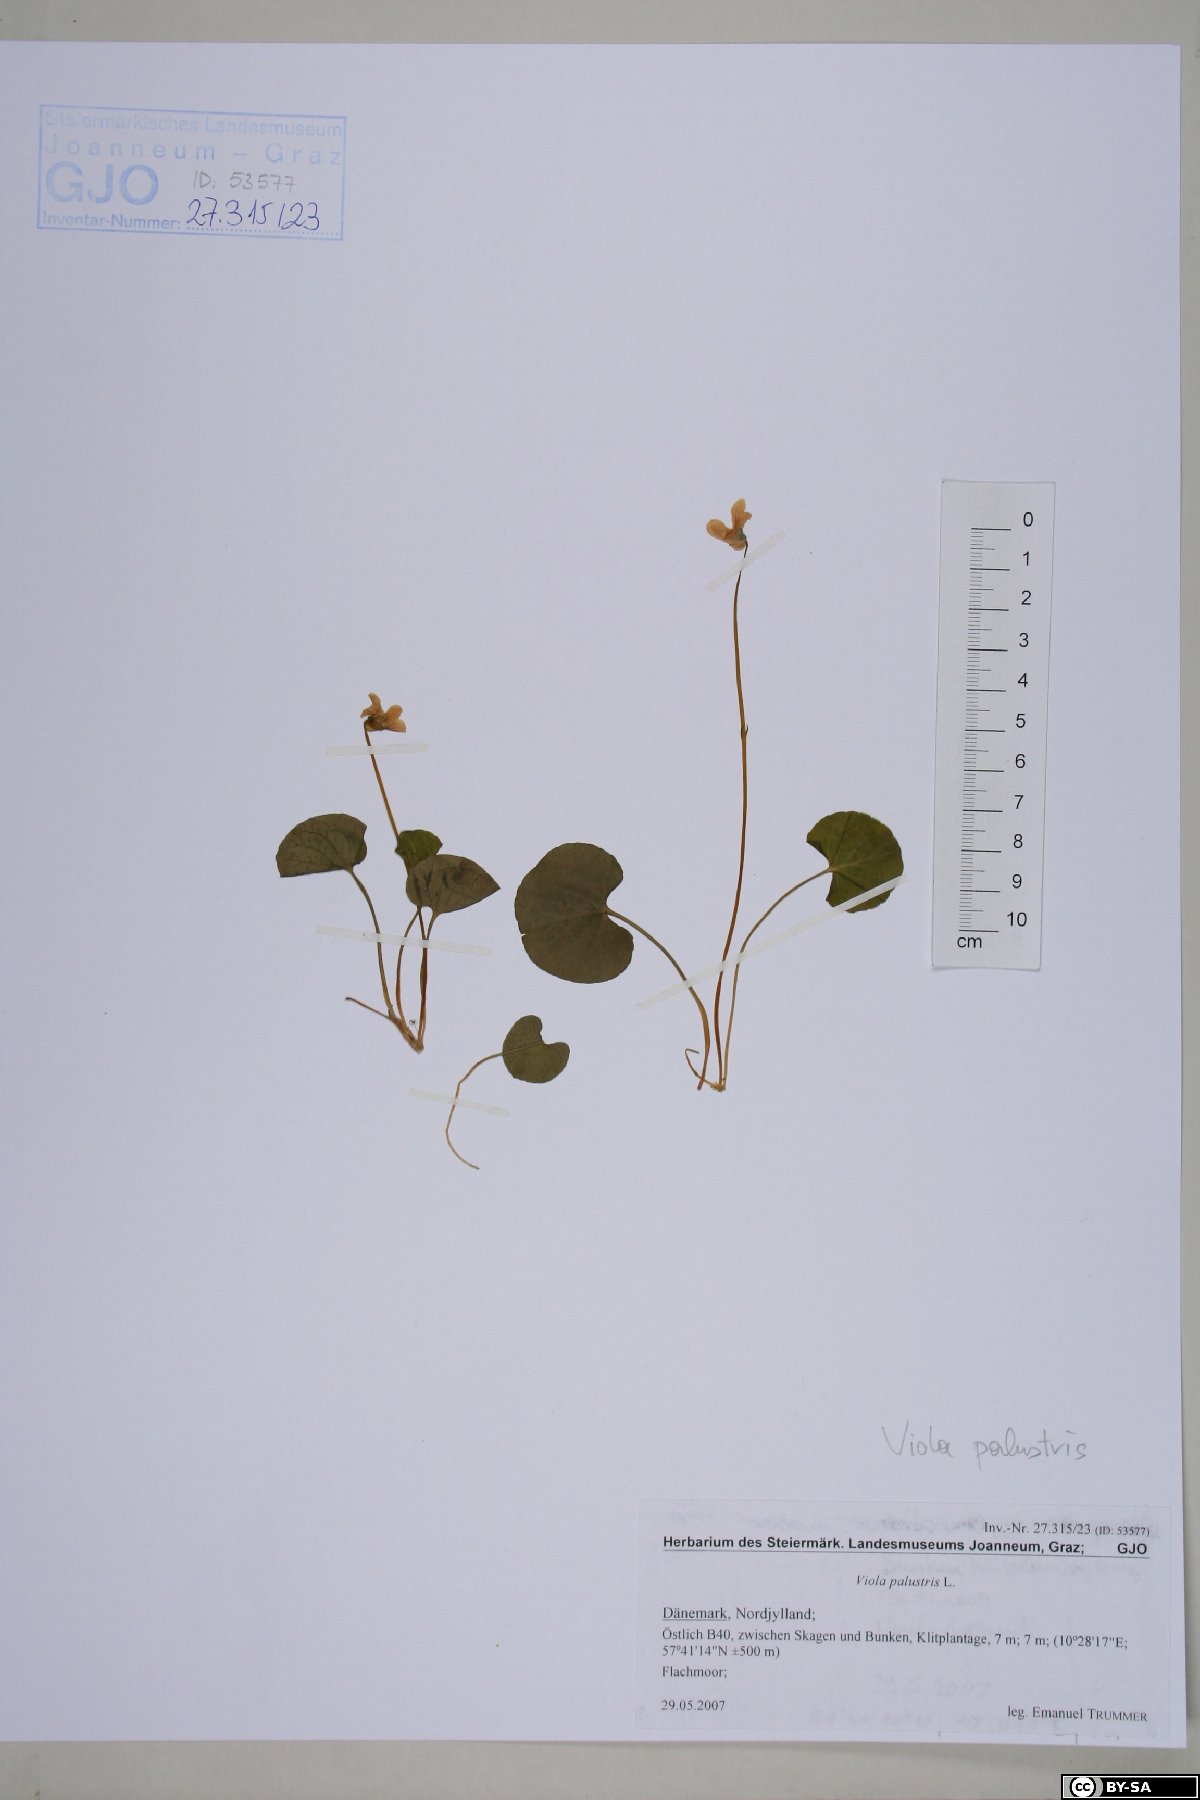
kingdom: Plantae
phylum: Tracheophyta
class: Magnoliopsida
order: Malpighiales
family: Violaceae
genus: Viola
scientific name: Viola palustris
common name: Marsh violet
